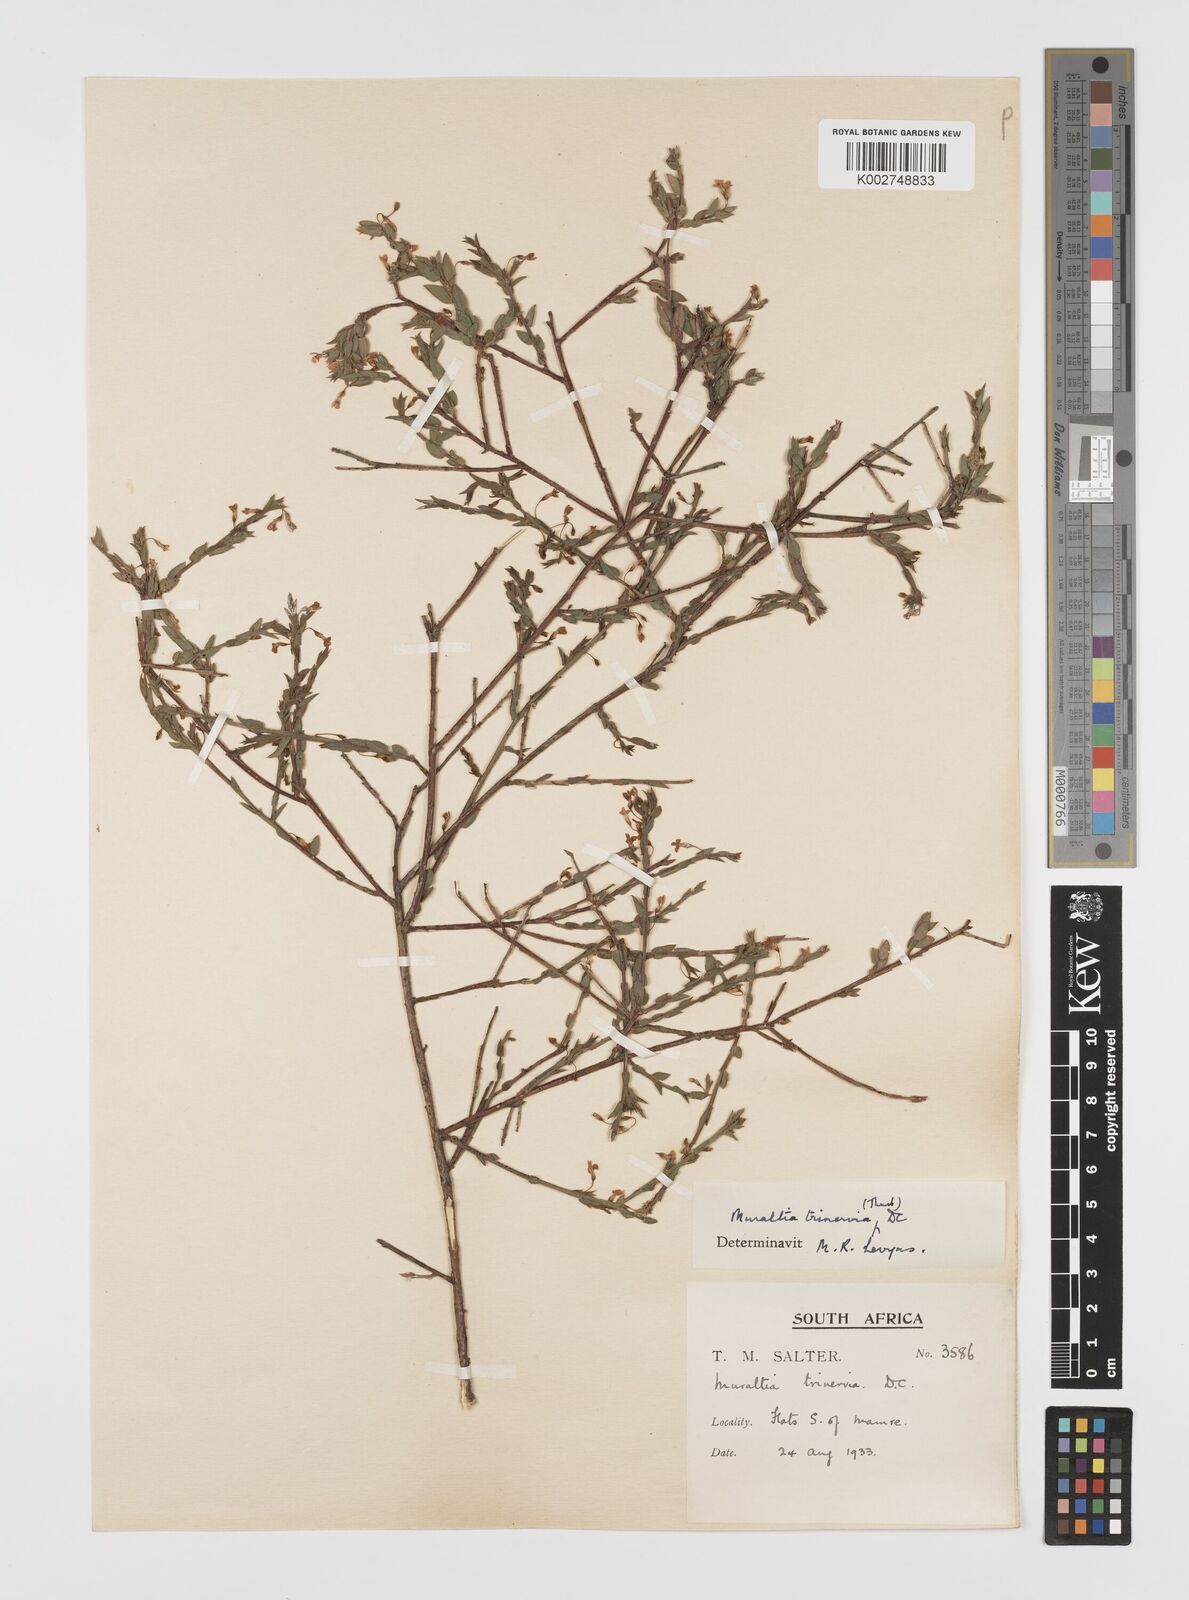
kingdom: Plantae
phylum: Tracheophyta
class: Magnoliopsida
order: Fabales
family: Polygalaceae
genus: Muraltia
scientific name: Muraltia trinervia
